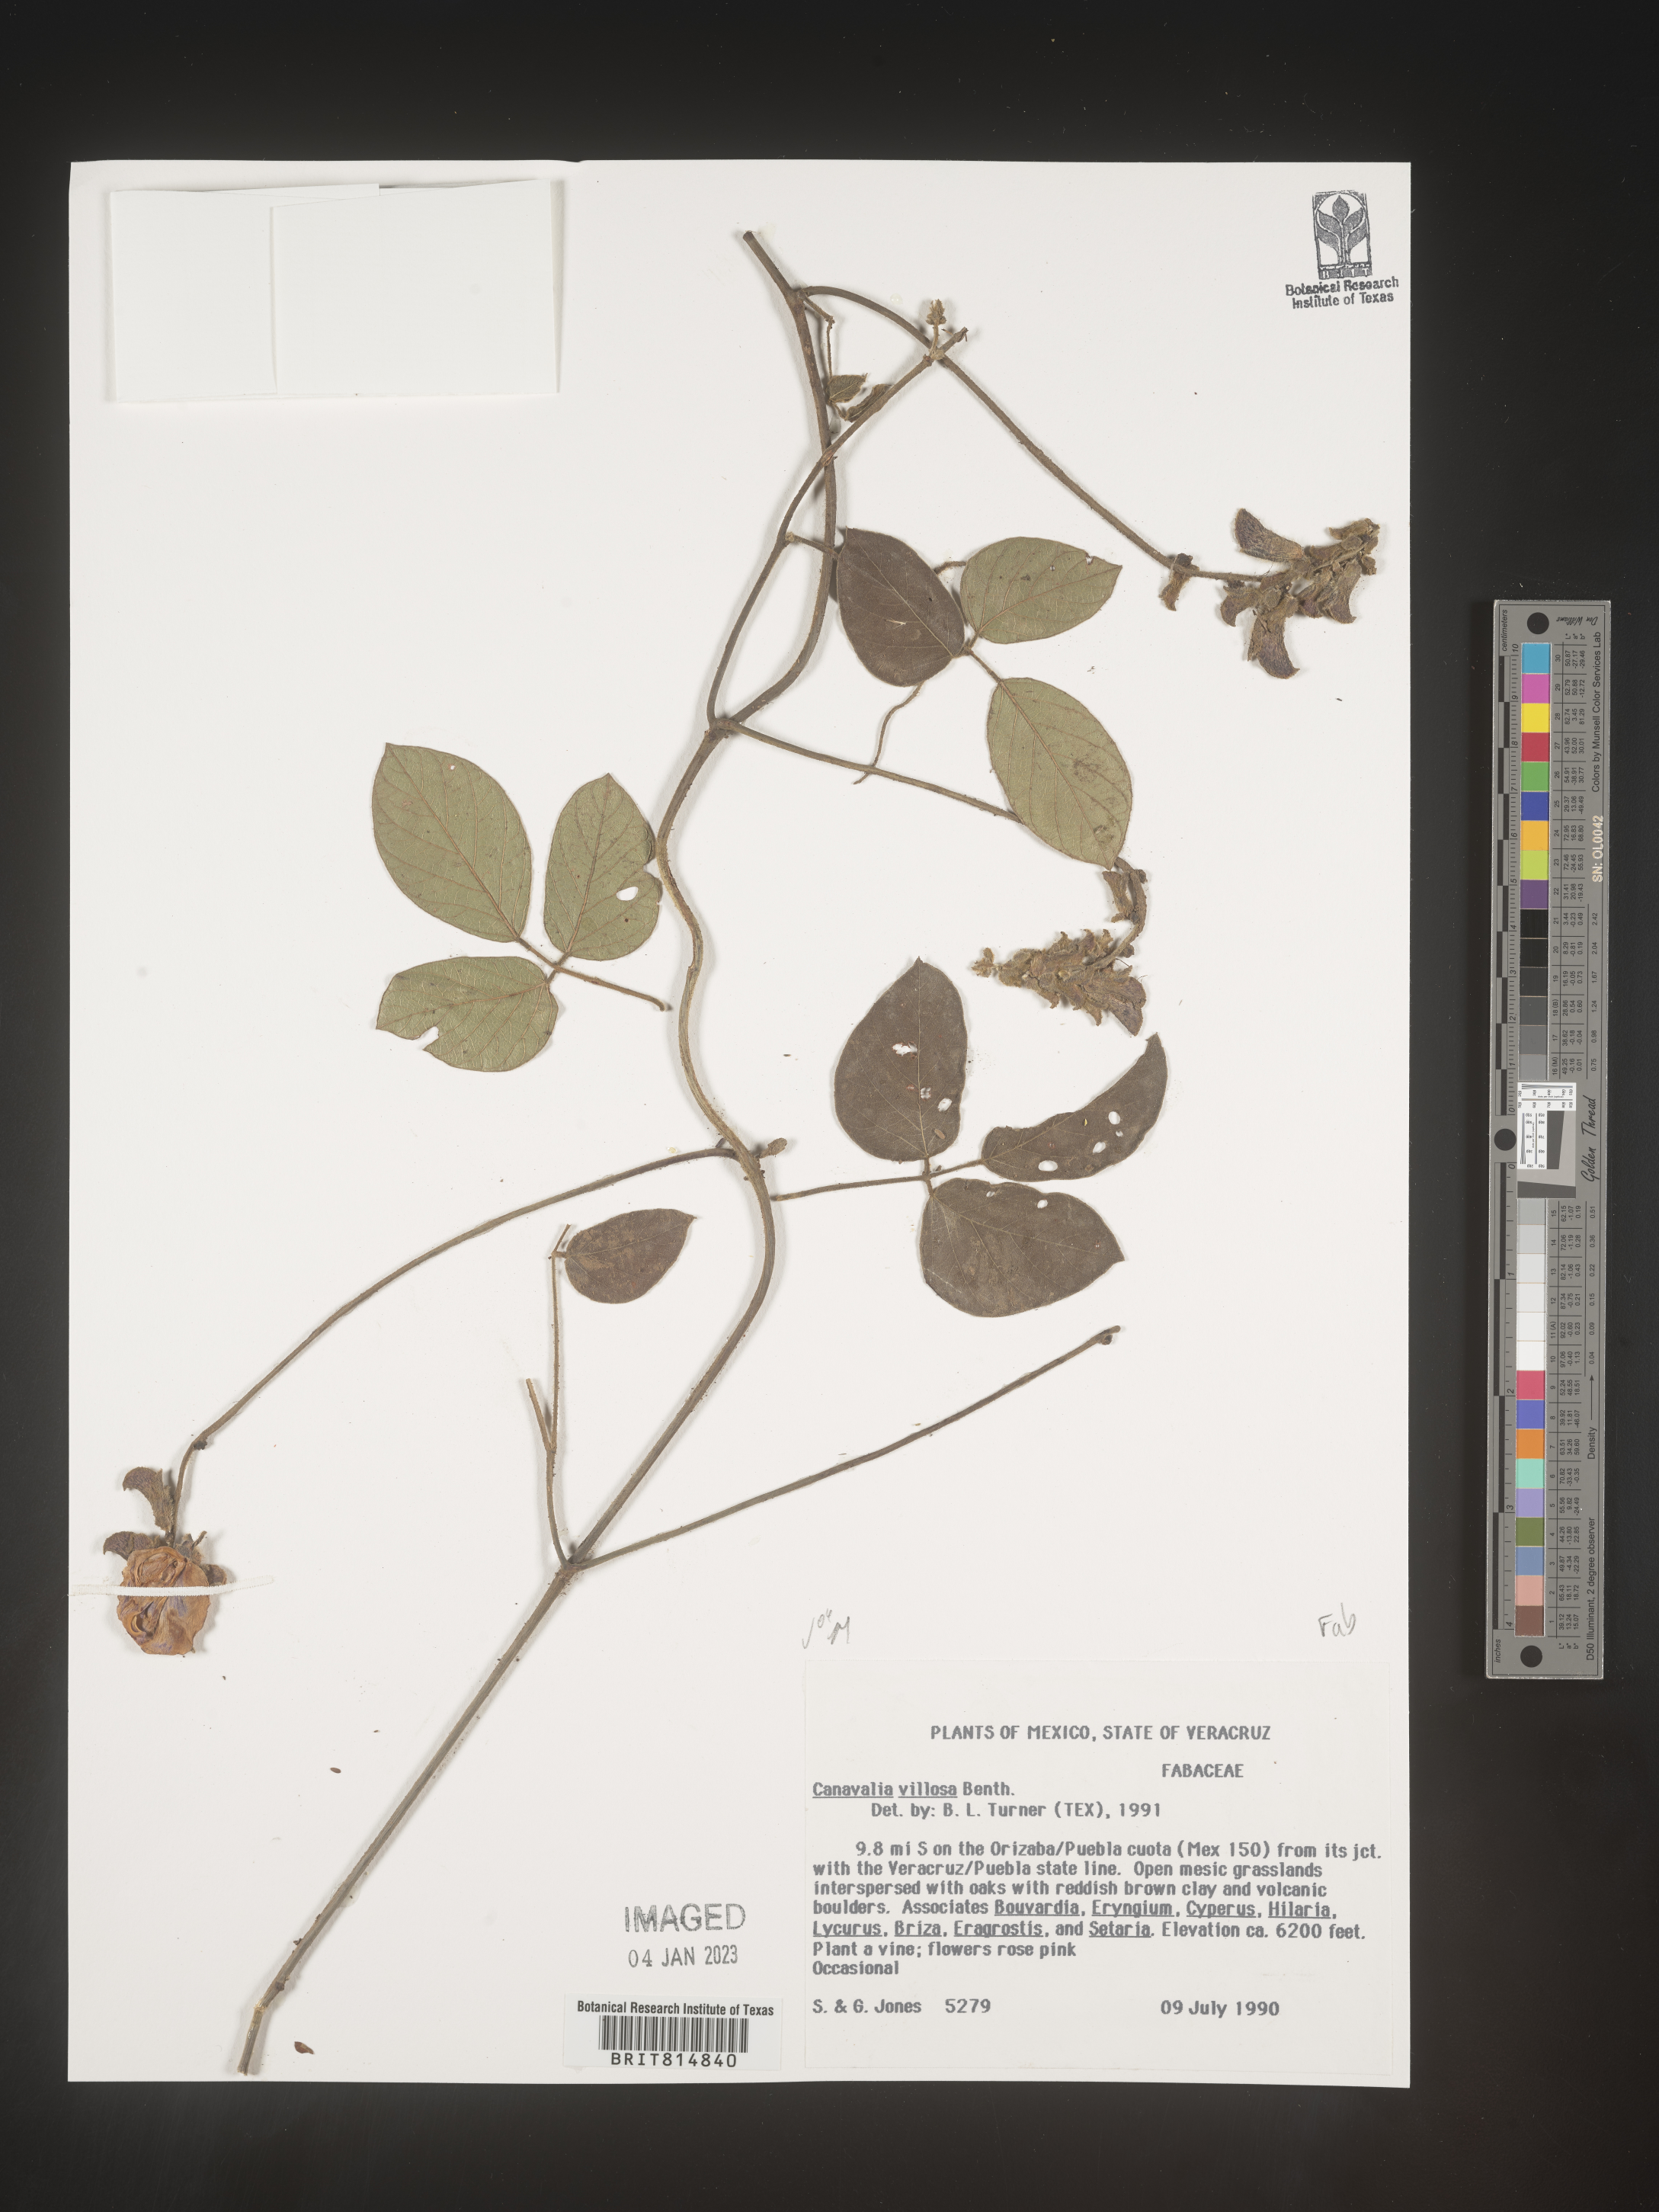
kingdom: Plantae
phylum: Tracheophyta
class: Magnoliopsida
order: Fabales
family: Fabaceae
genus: Canavalia
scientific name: Canavalia
